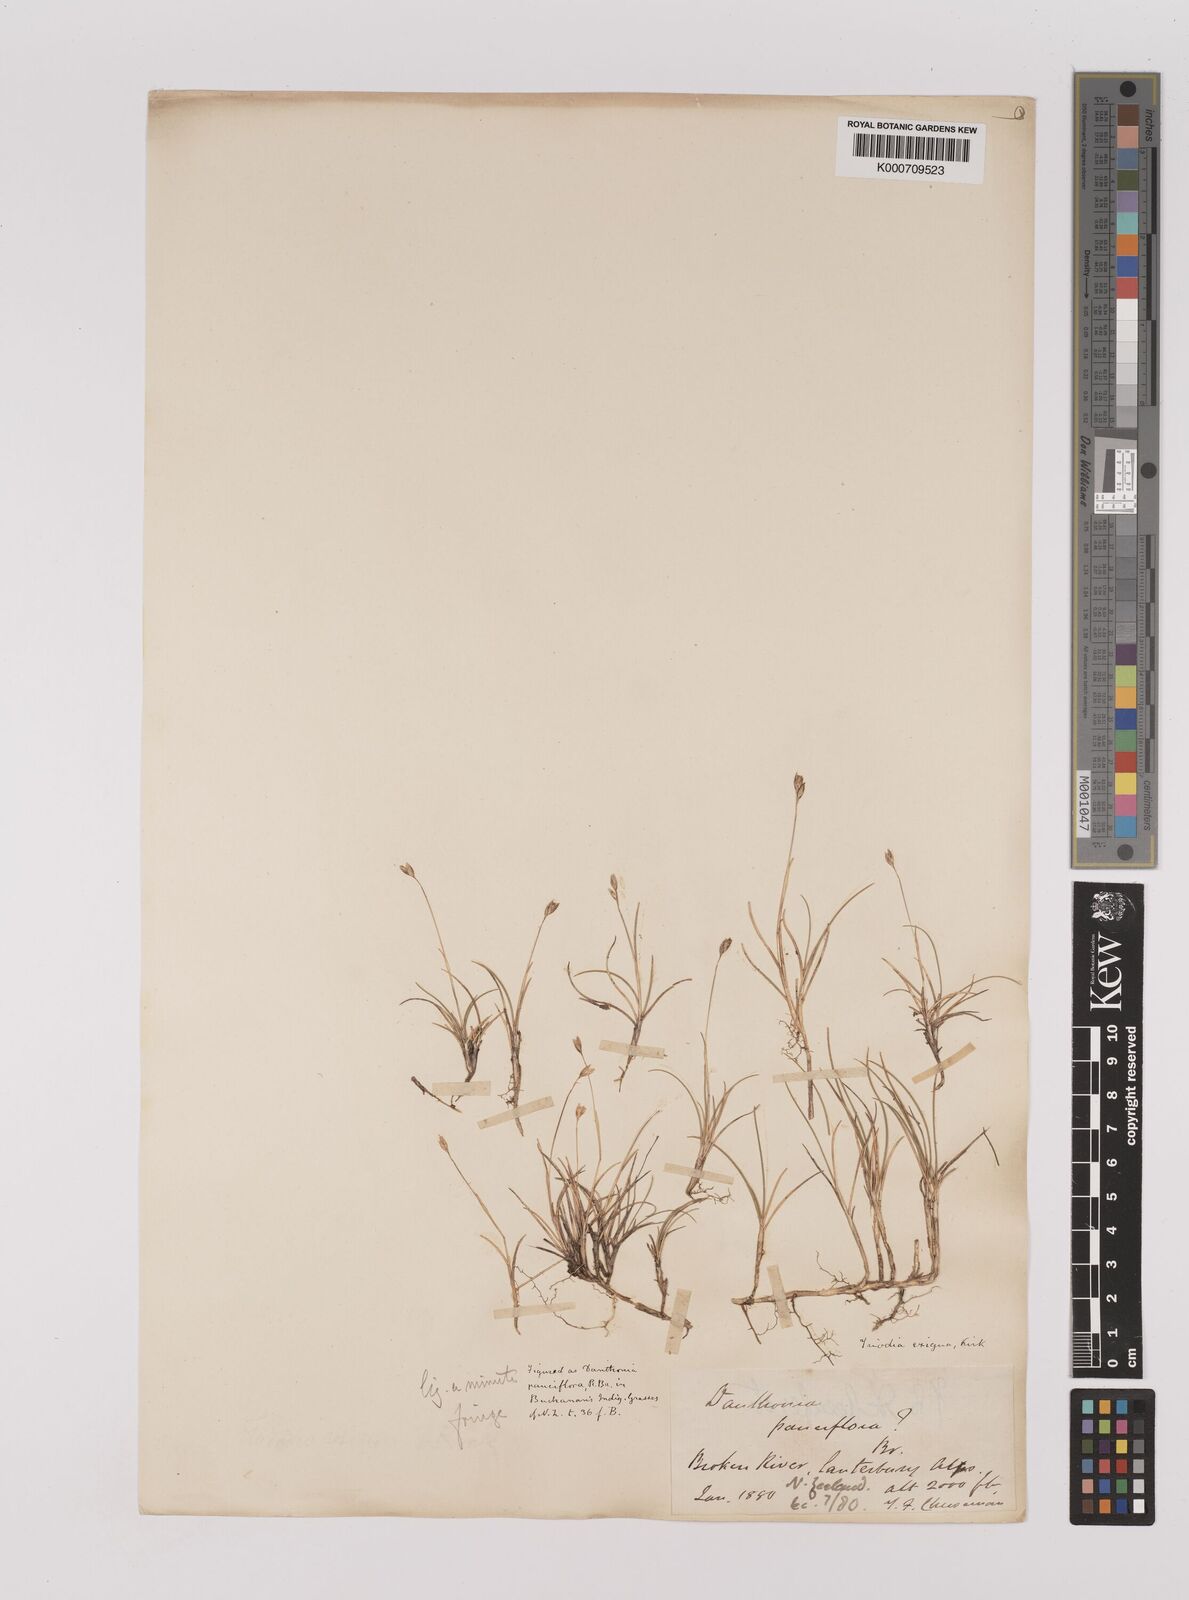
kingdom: Plantae
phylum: Tracheophyta
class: Liliopsida
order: Poales
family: Poaceae
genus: Rytidosperma
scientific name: Rytidosperma exiguum
